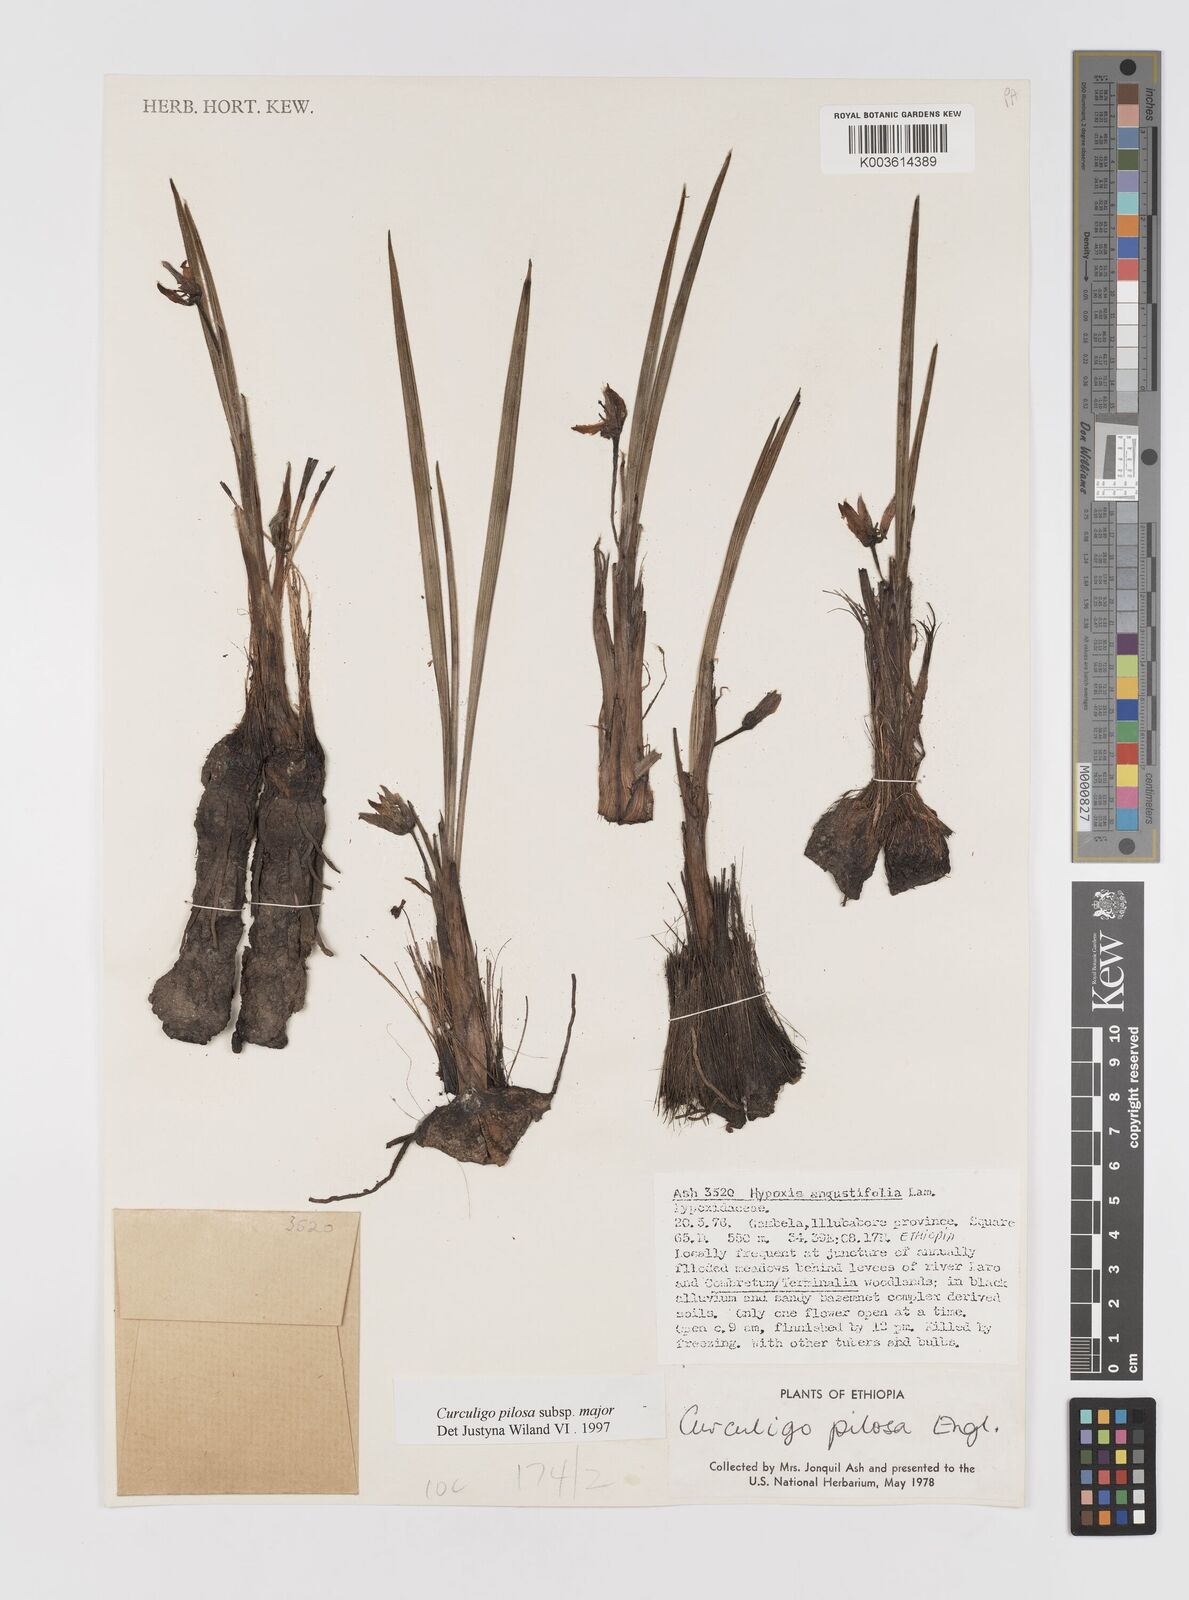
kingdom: Plantae
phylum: Tracheophyta
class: Liliopsida
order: Asparagales
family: Hypoxidaceae
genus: Curculigo
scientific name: Curculigo pilosa
